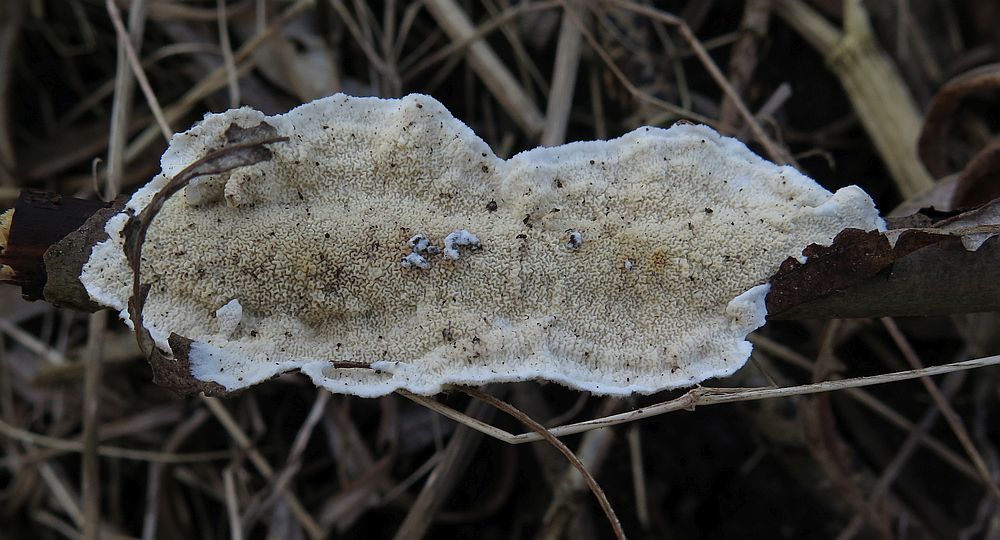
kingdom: Fungi
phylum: Basidiomycota
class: Agaricomycetes
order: Polyporales
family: Irpicaceae
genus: Byssomerulius
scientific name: Byssomerulius corium
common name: læder-åresvamp
